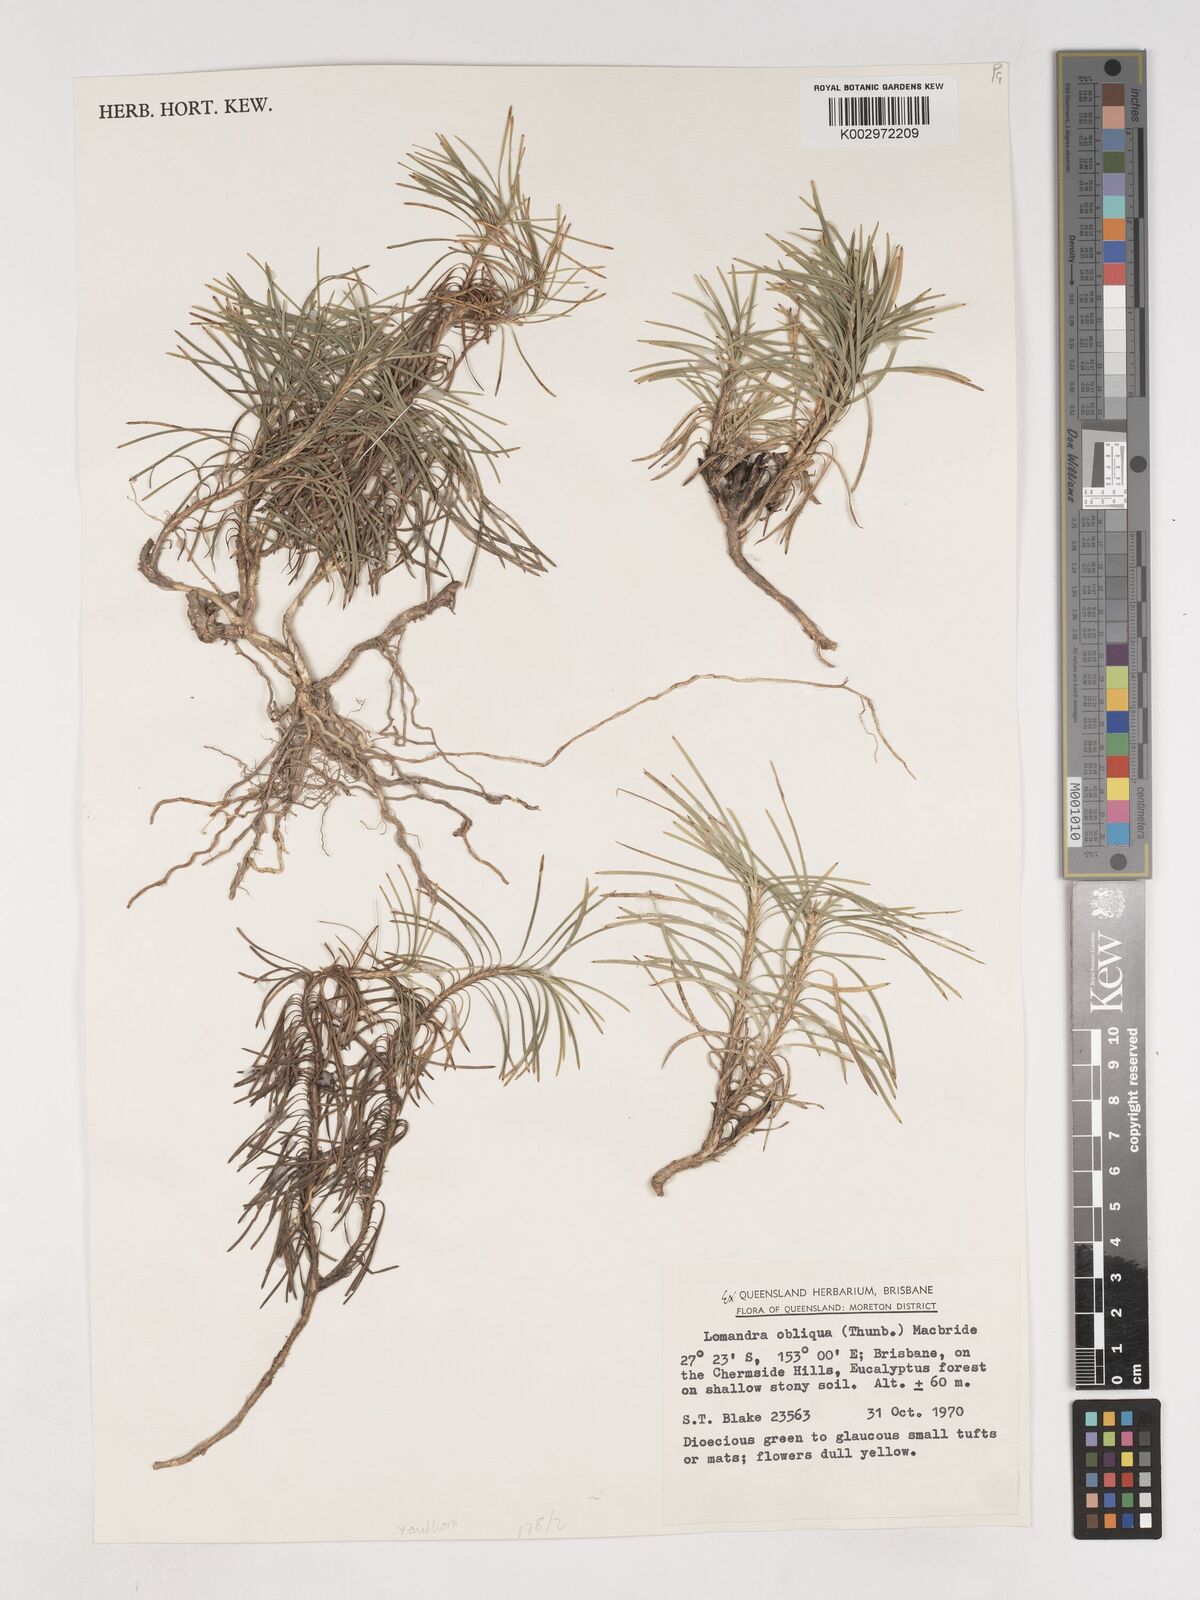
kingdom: Plantae
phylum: Tracheophyta
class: Liliopsida
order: Asparagales
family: Asparagaceae
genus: Lomandra
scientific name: Lomandra obliqua
